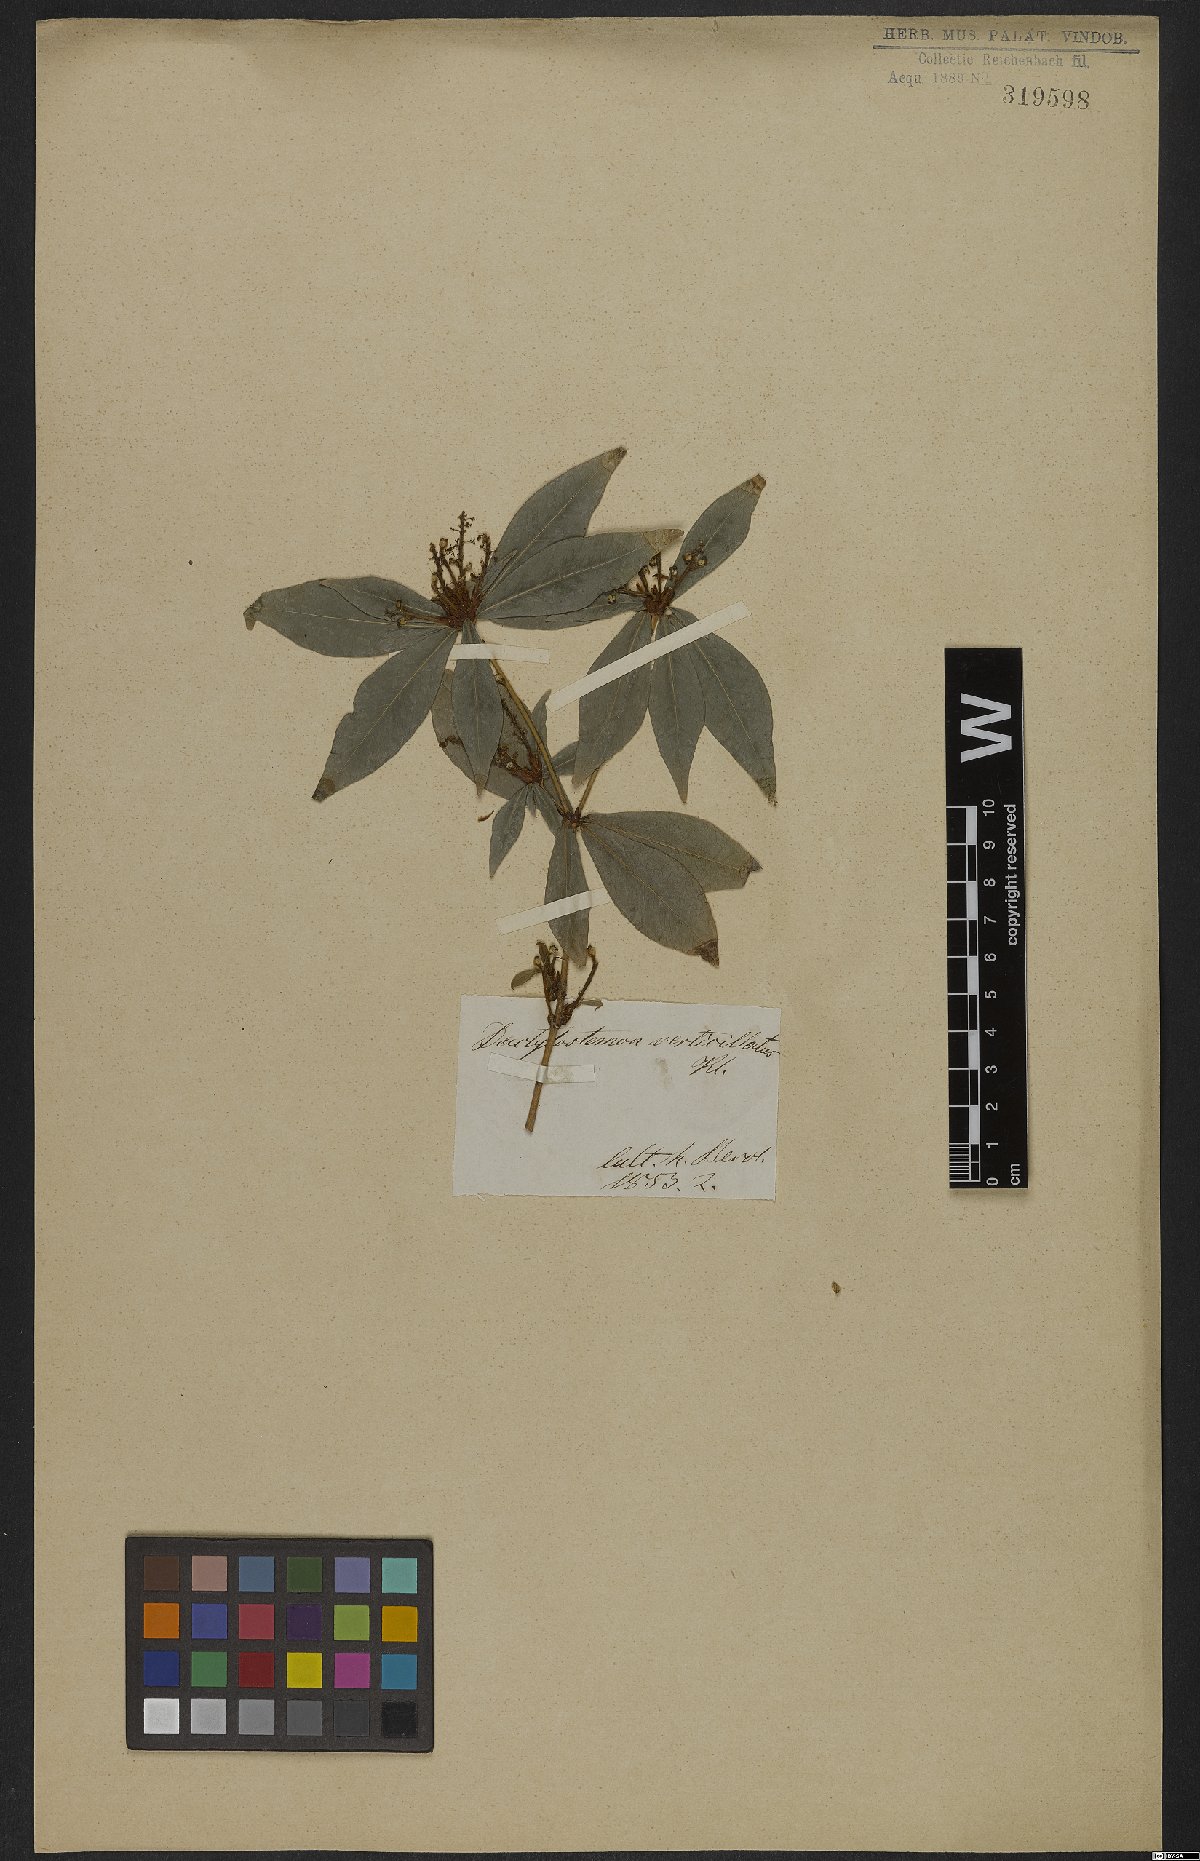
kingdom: Plantae
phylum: Tracheophyta
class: Magnoliopsida
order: Malpighiales
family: Euphorbiaceae
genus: Actinostemon
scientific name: Actinostemon verticillatus
